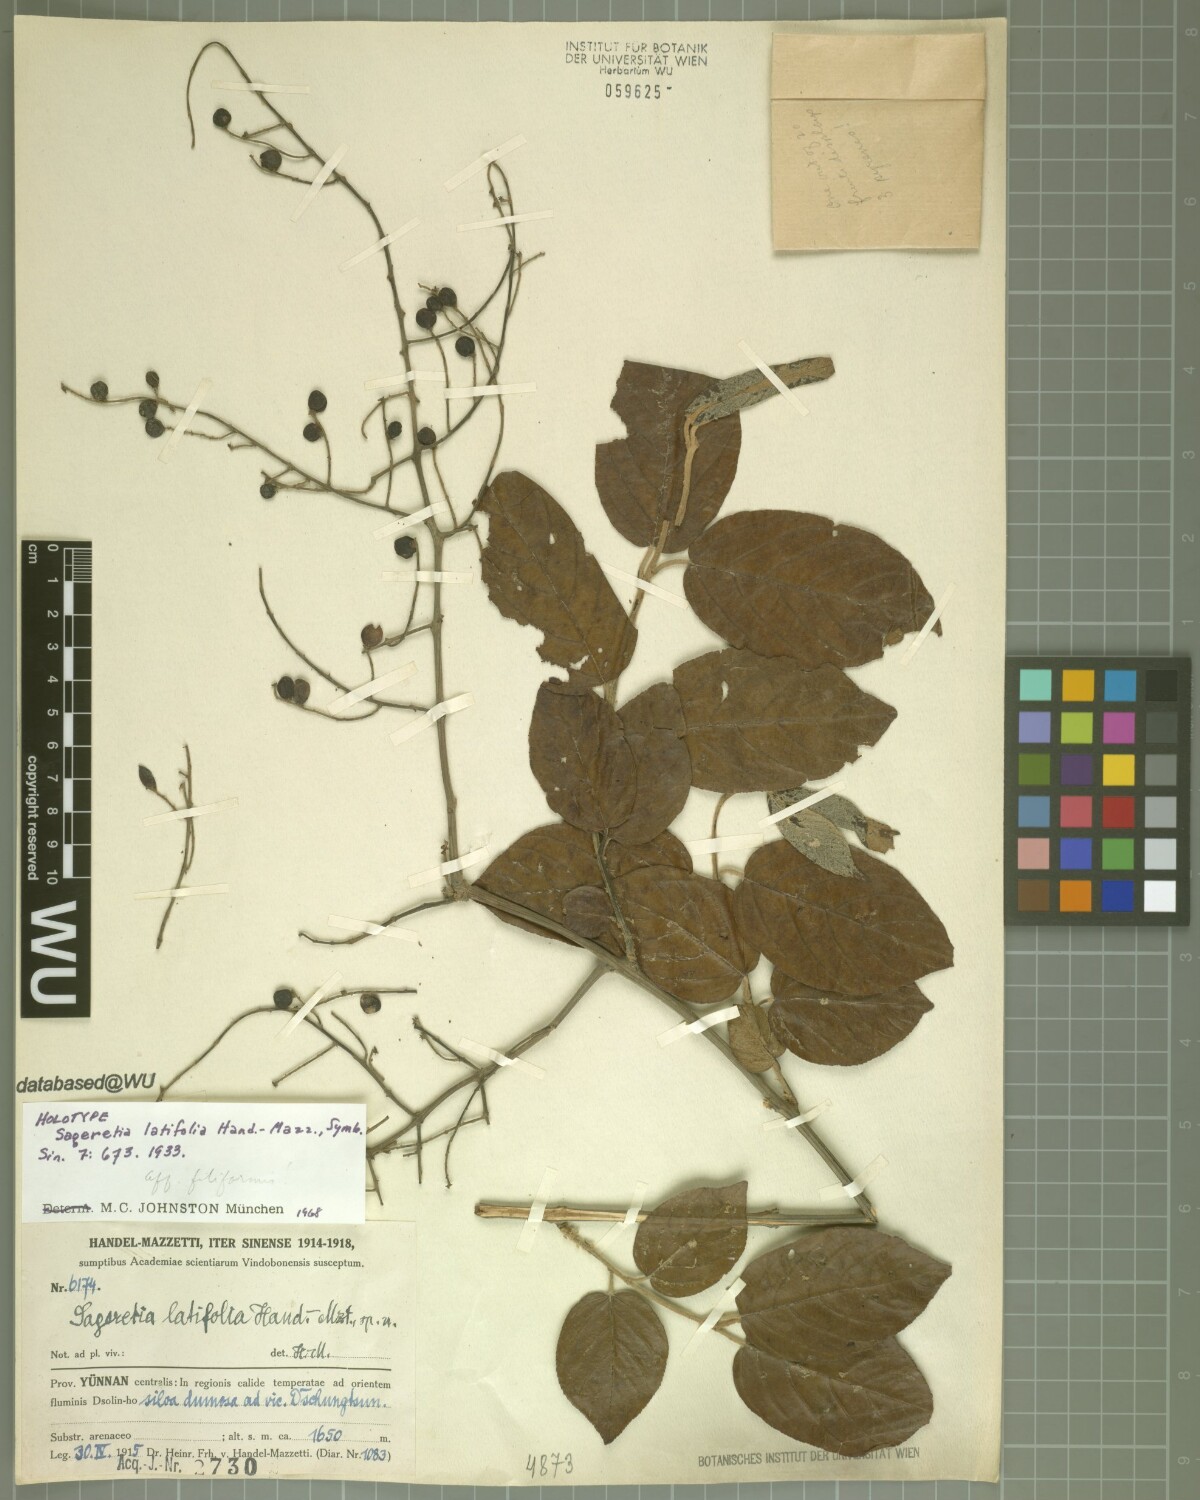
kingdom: Plantae
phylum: Tracheophyta
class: Magnoliopsida
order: Rosales
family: Rhamnaceae
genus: Sageretia
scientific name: Sageretia latifolia
